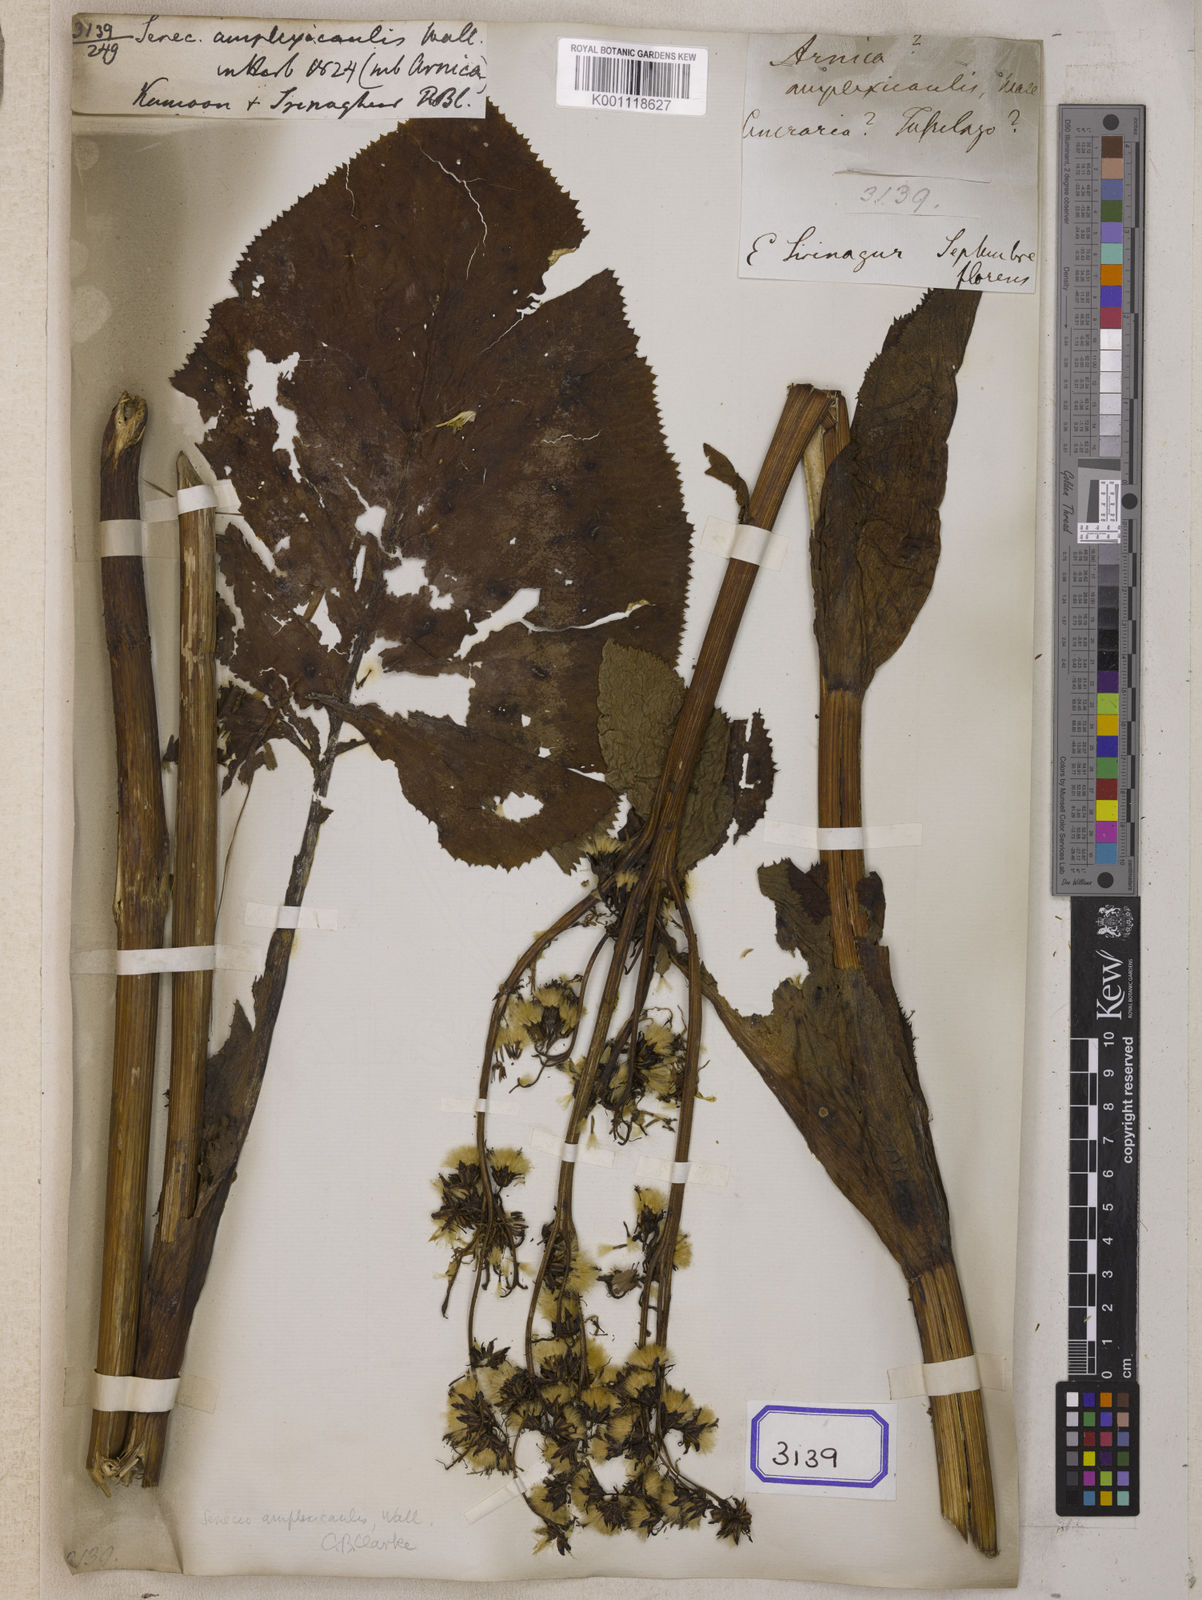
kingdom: Plantae
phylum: Tracheophyta
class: Magnoliopsida
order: Asterales
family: Asteraceae
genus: Ligularia
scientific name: Ligularia amplexicaulis
